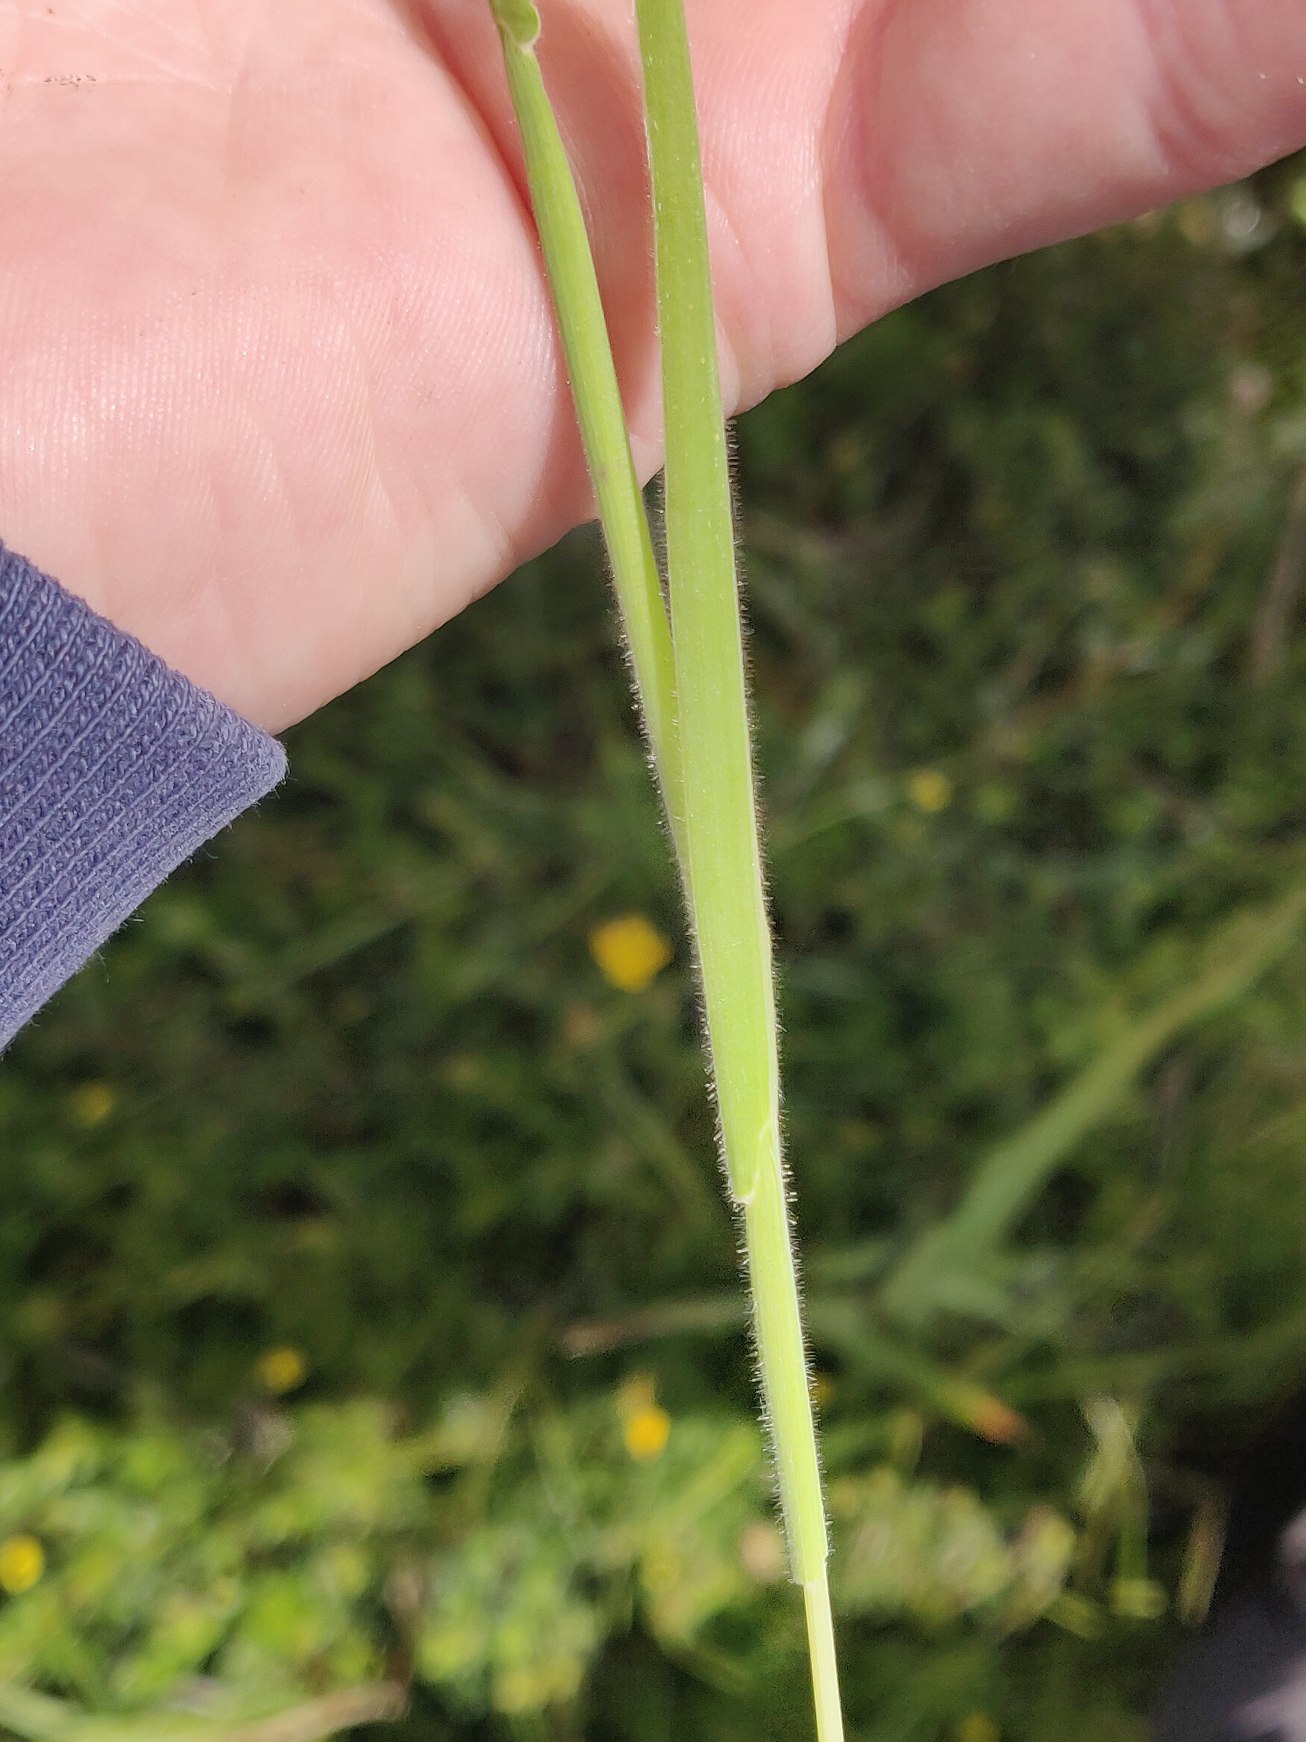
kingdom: Plantae
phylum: Tracheophyta
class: Liliopsida
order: Poales
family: Poaceae
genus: Holcus
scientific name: Holcus lanatus
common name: Fløjlsgræs
